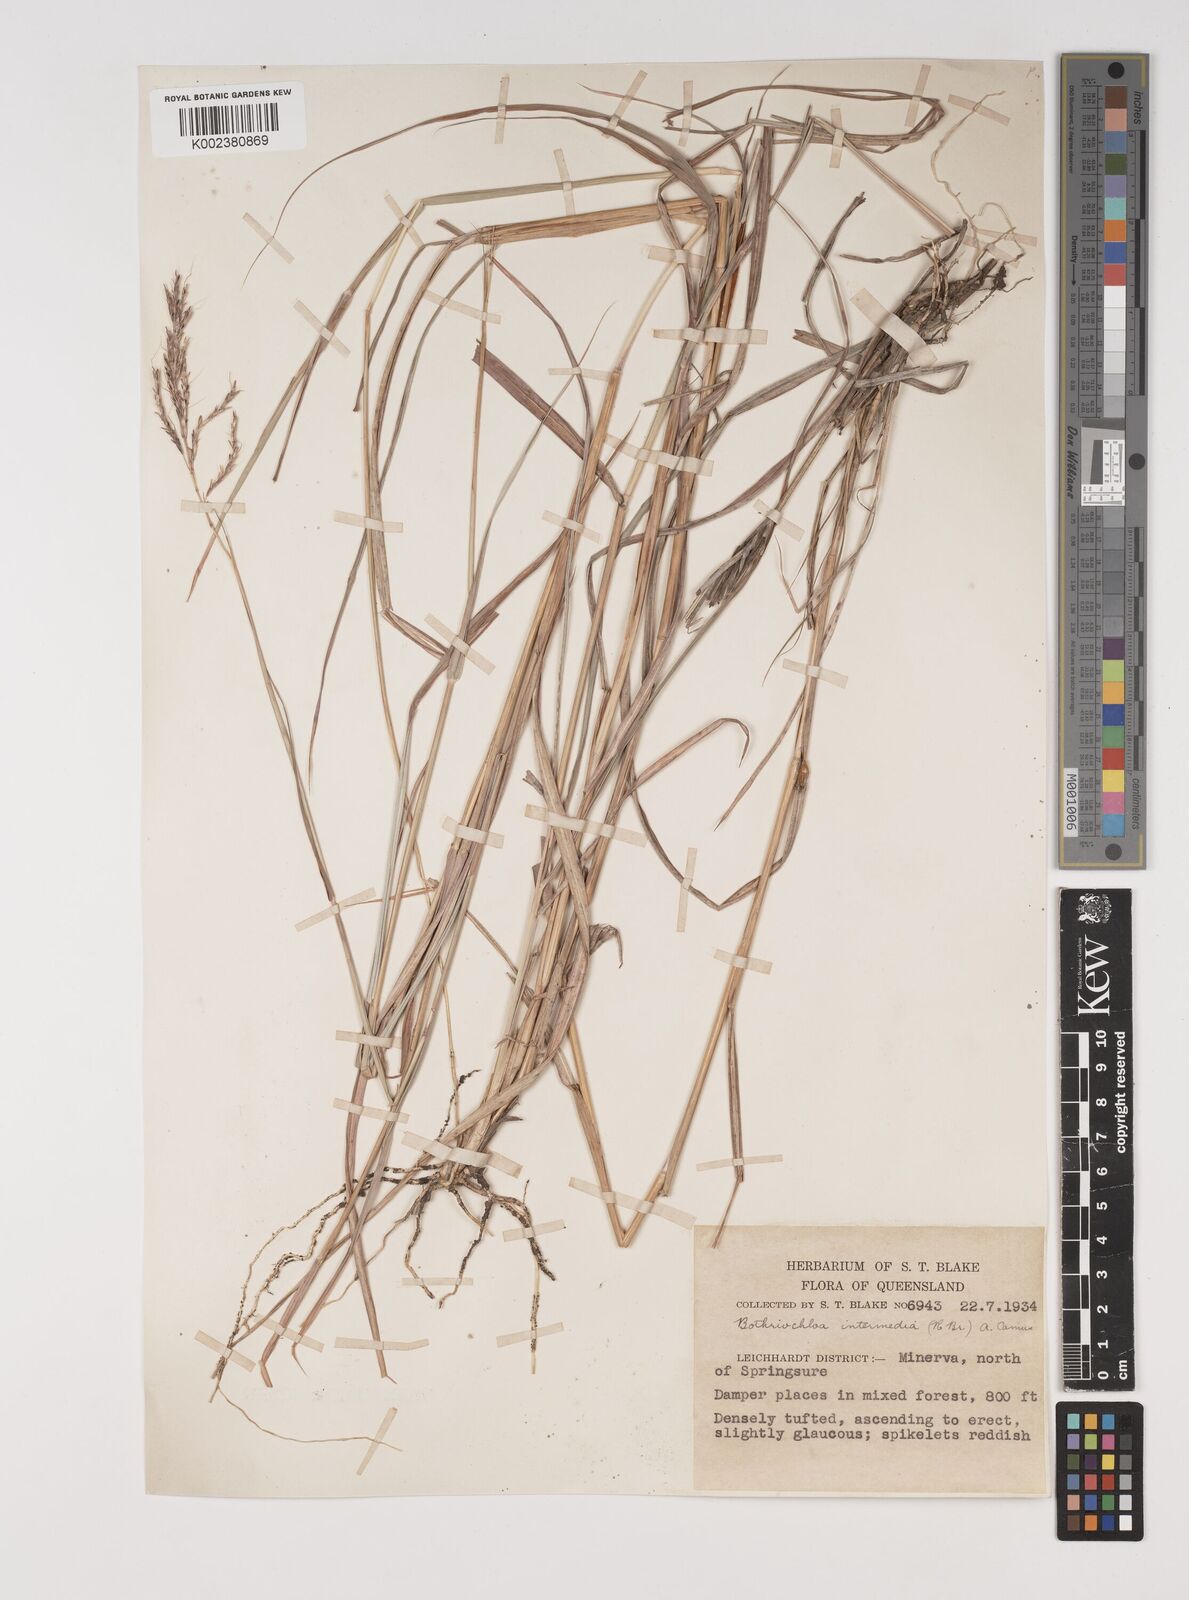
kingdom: Plantae
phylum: Tracheophyta
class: Liliopsida
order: Poales
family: Poaceae
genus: Bothriochloa
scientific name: Bothriochloa bladhii
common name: Caucasian bluestem
